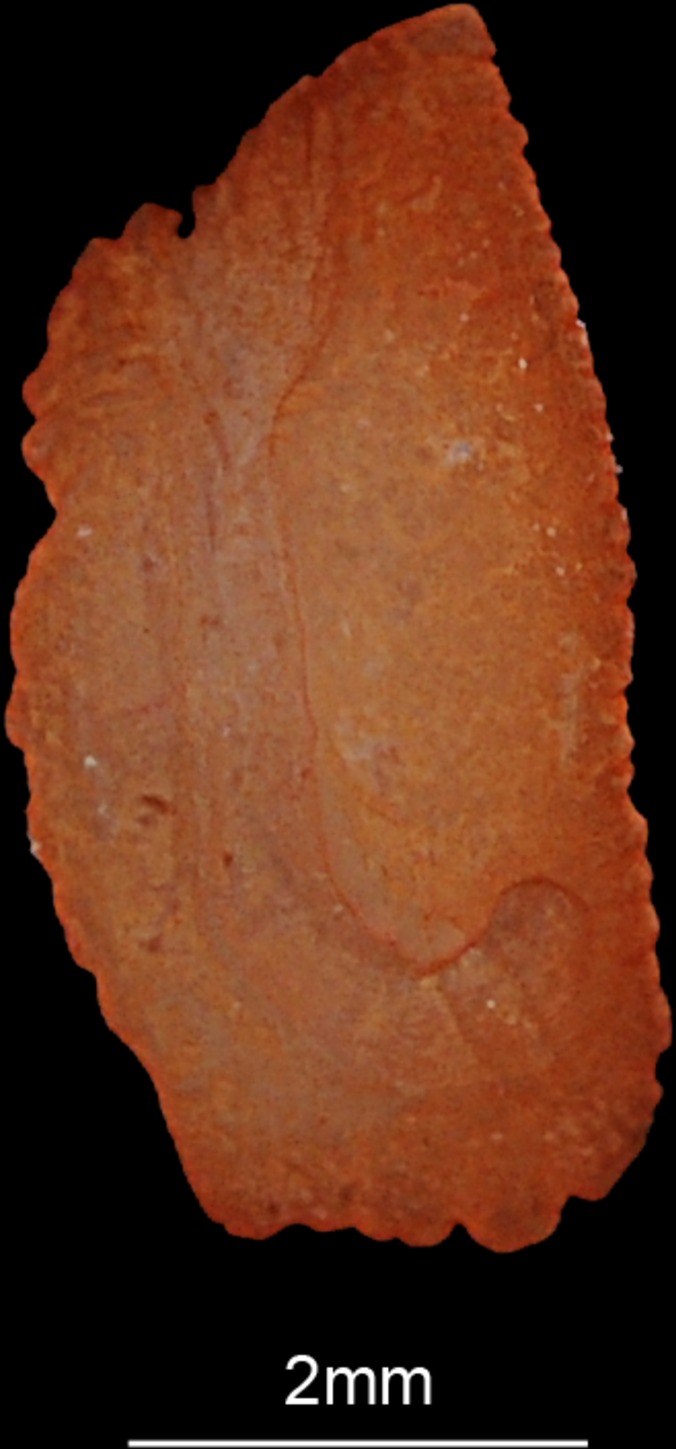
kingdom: Animalia
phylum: Chordata
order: Perciformes
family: Haemulidae
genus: Plectorhinchus
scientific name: Plectorhinchus schotaf
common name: Minstrel sweetlips
